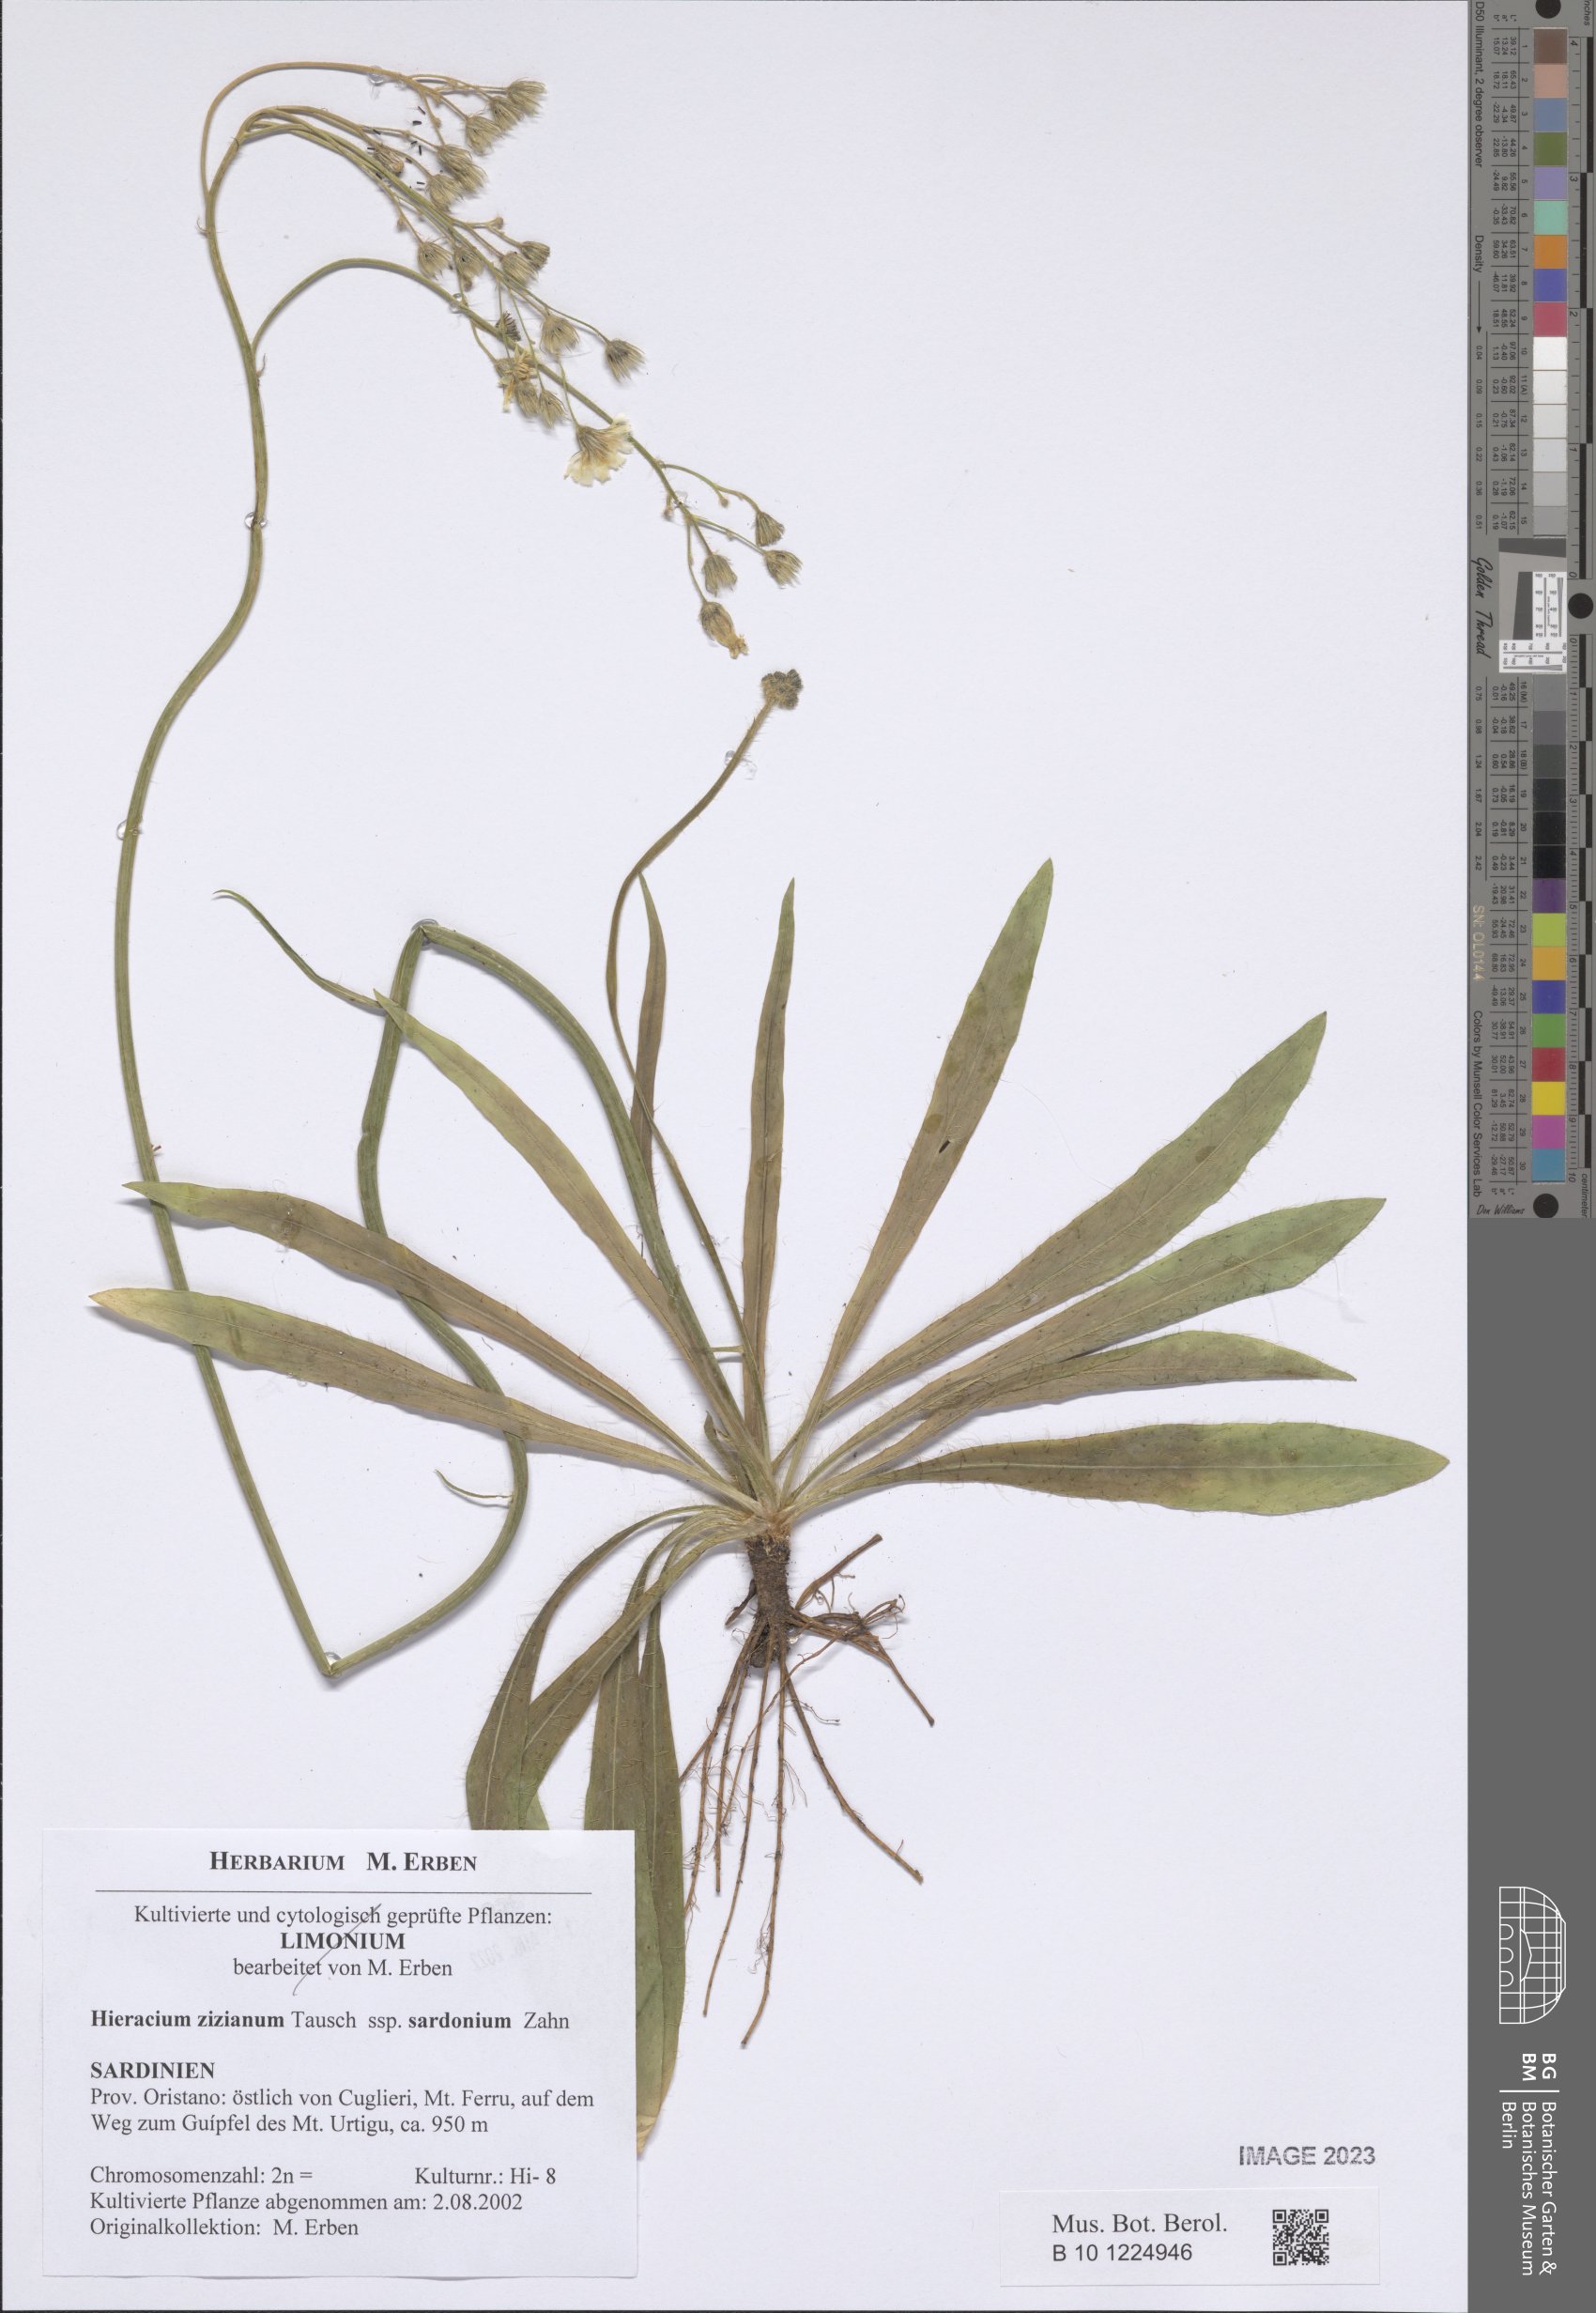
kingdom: Plantae
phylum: Tracheophyta
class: Magnoliopsida
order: Asterales
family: Asteraceae
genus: Pilosella
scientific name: Pilosella ziziana
